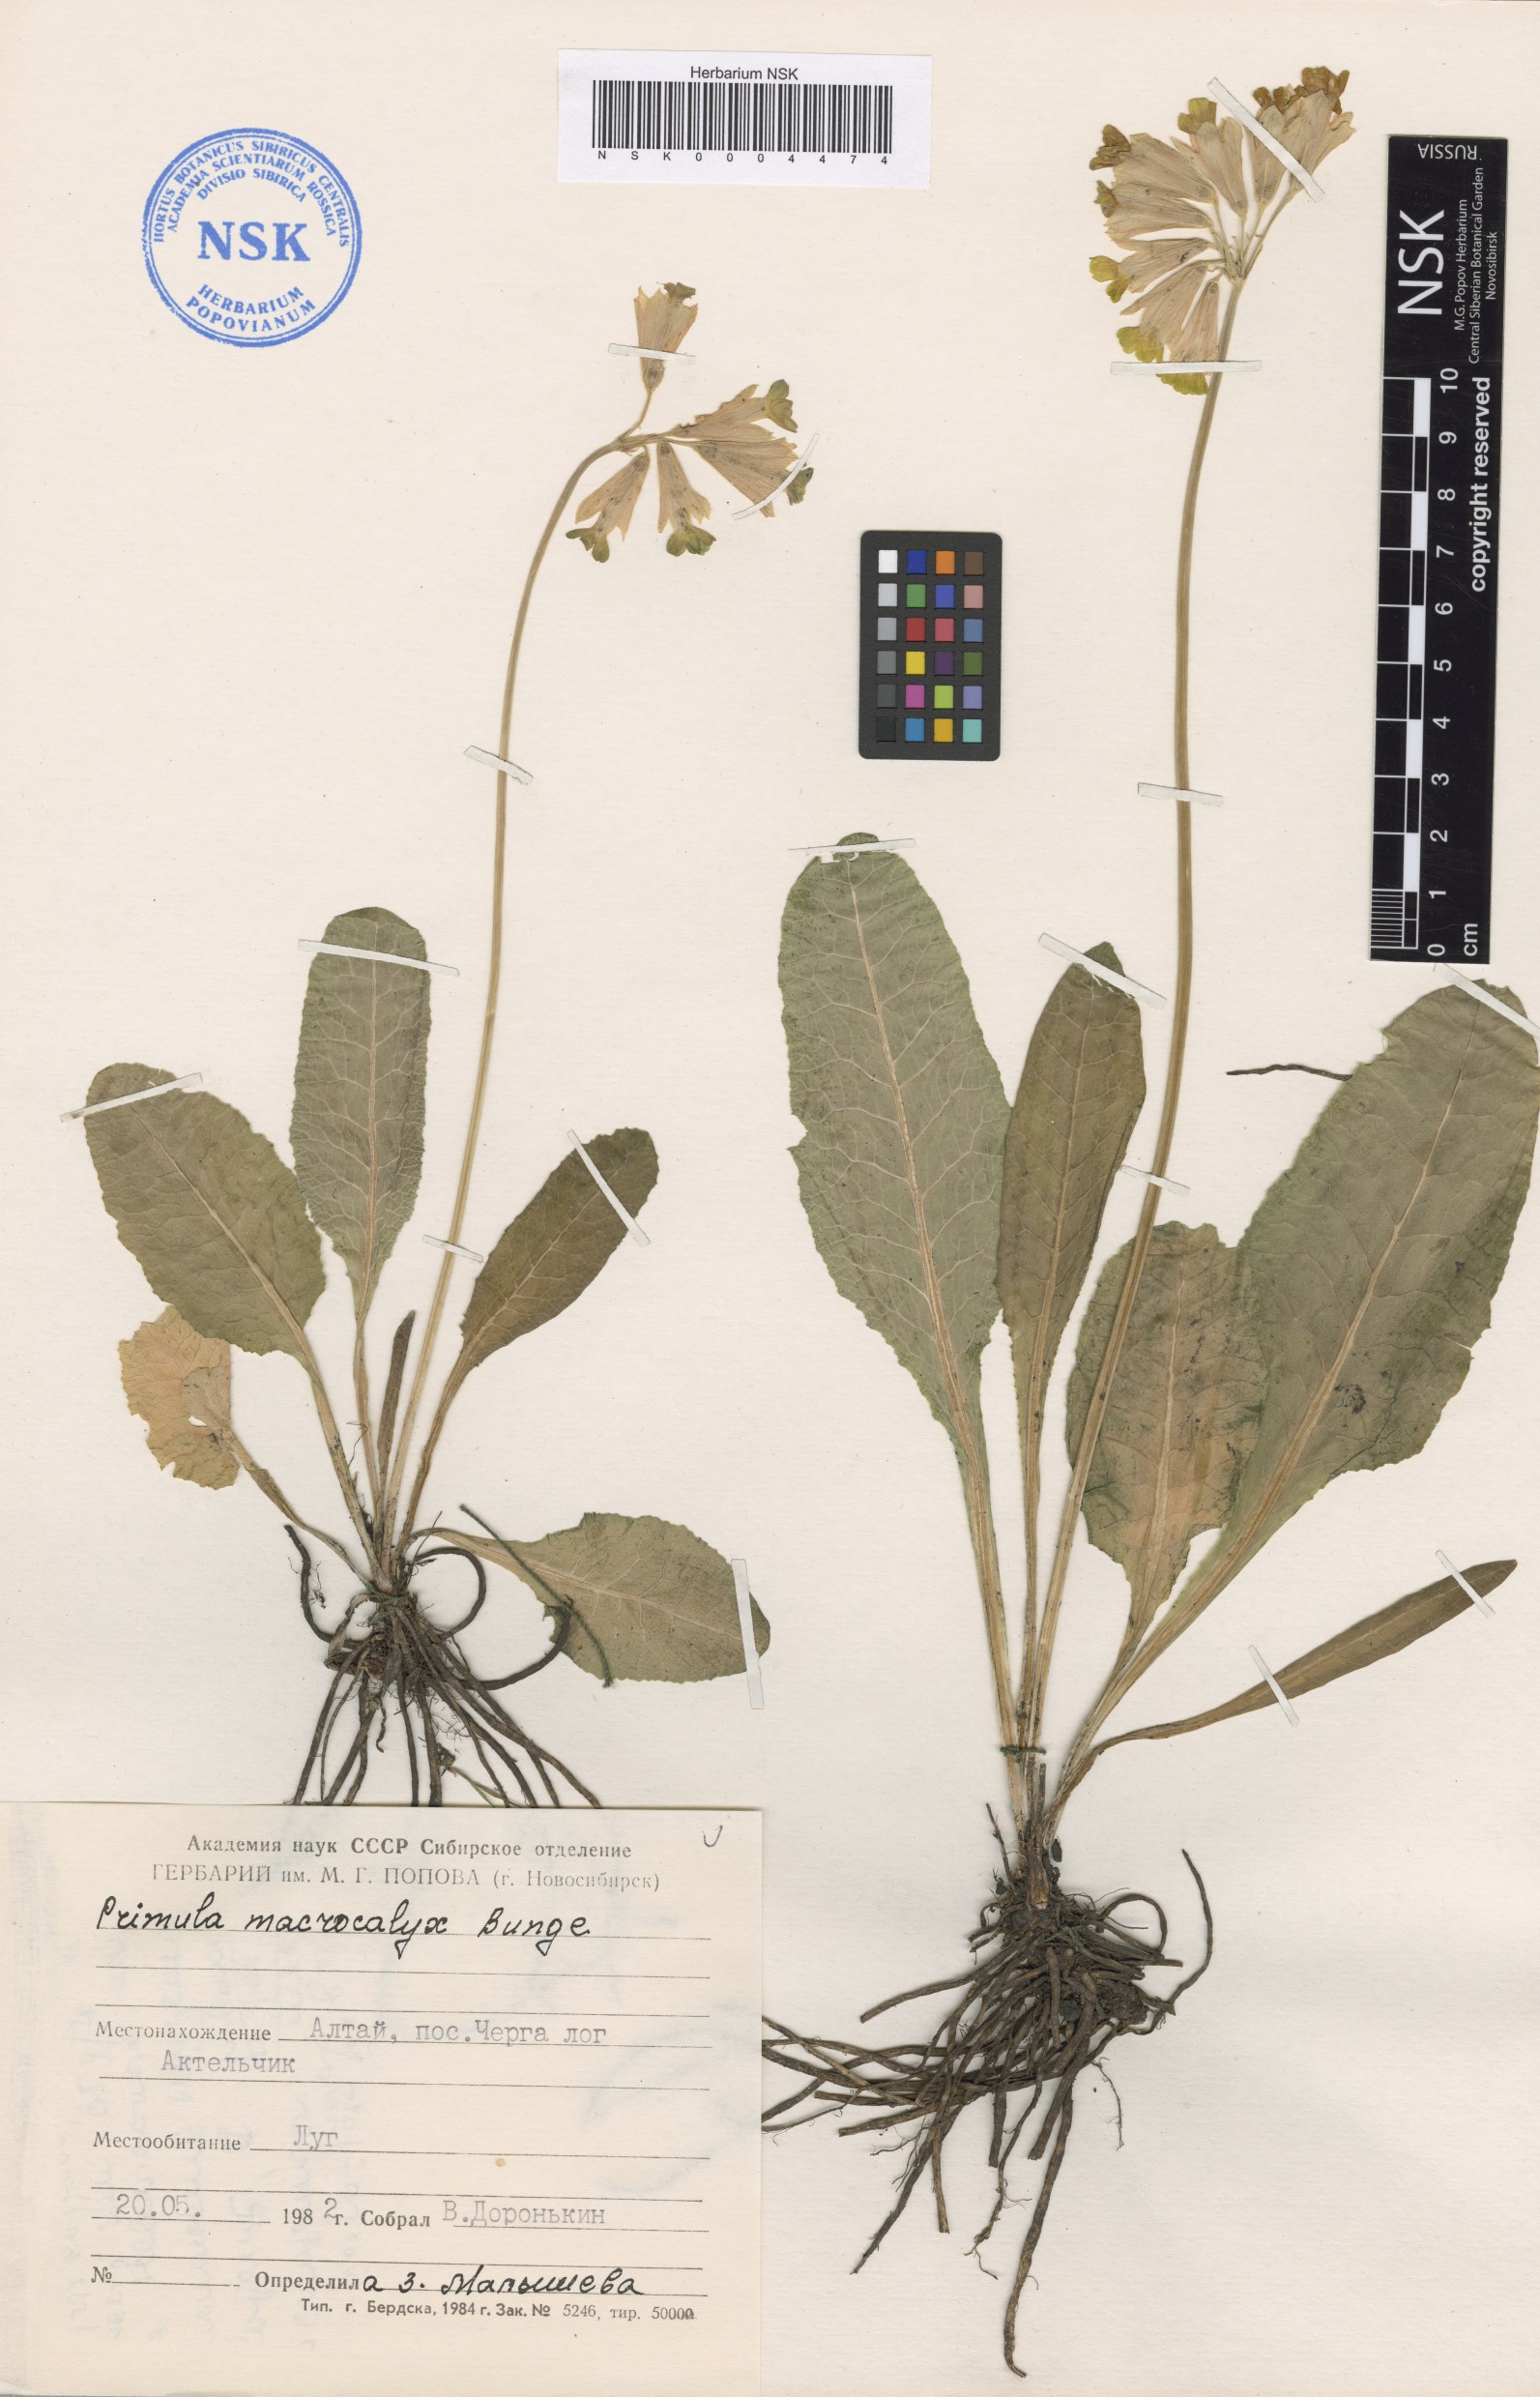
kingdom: Plantae
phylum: Tracheophyta
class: Magnoliopsida
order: Ericales
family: Primulaceae
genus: Primula
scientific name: Primula veris
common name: Cowslip
